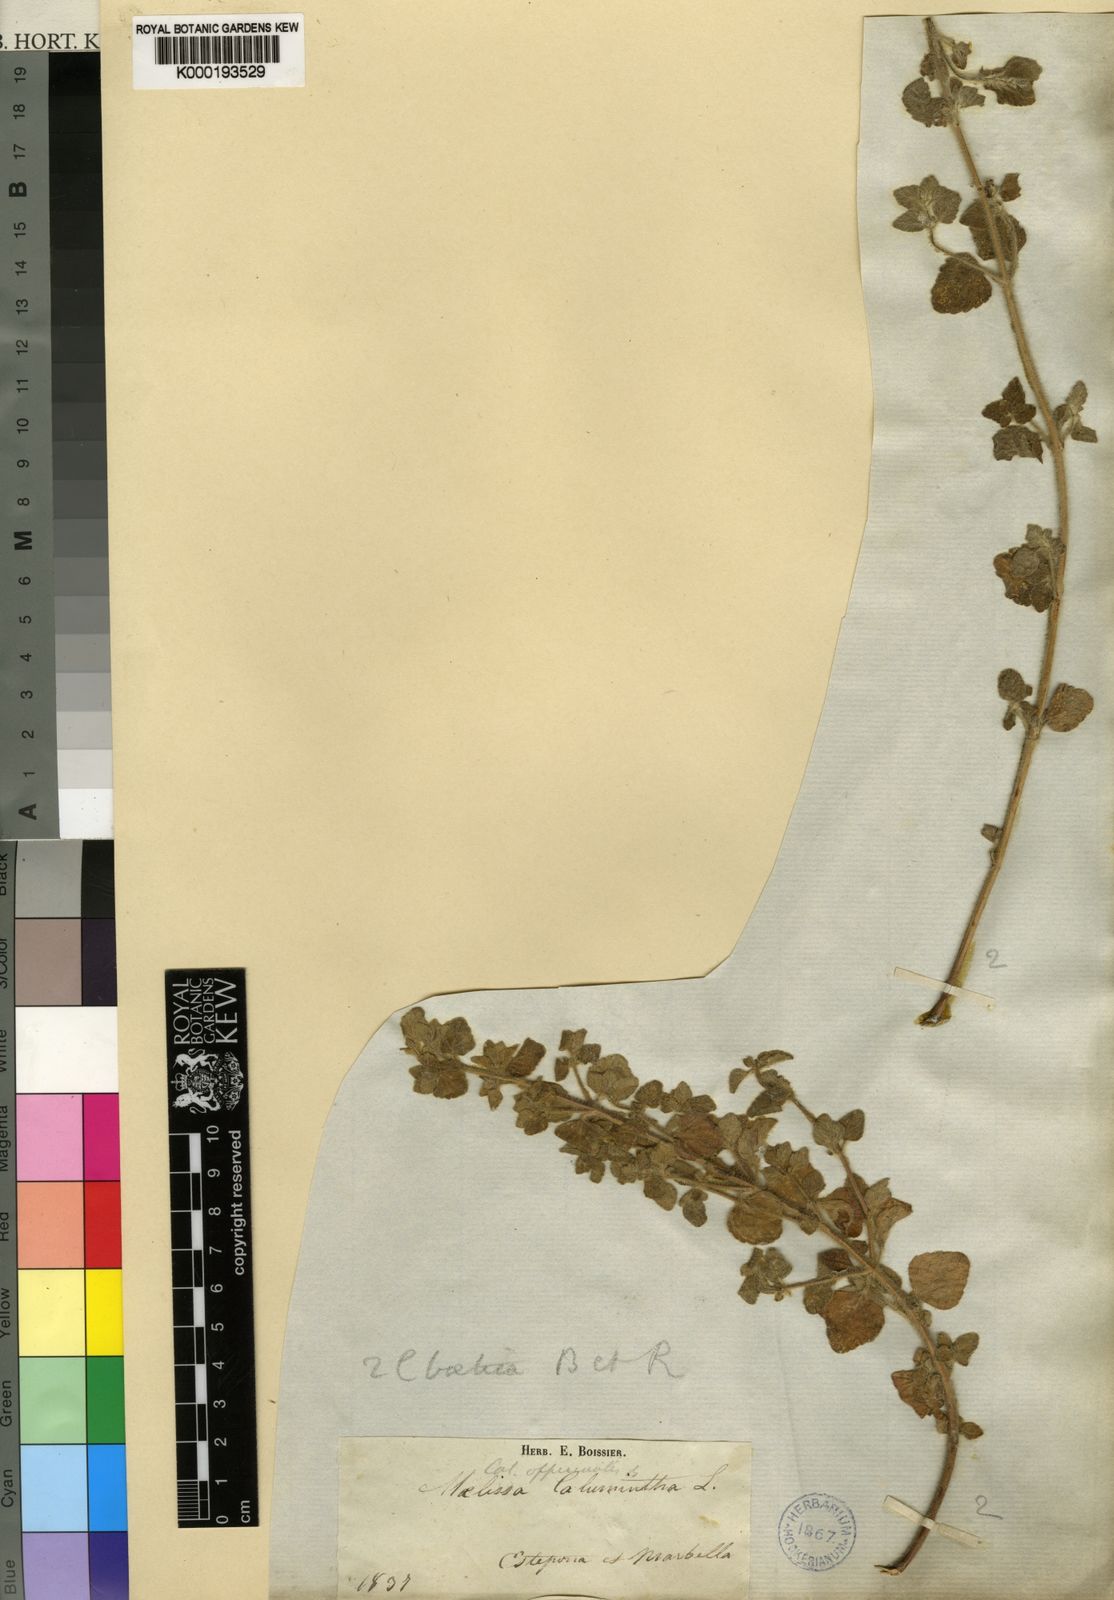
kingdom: Plantae
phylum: Tracheophyta
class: Magnoliopsida
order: Lamiales
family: Lamiaceae
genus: Clinopodium
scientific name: Clinopodium
